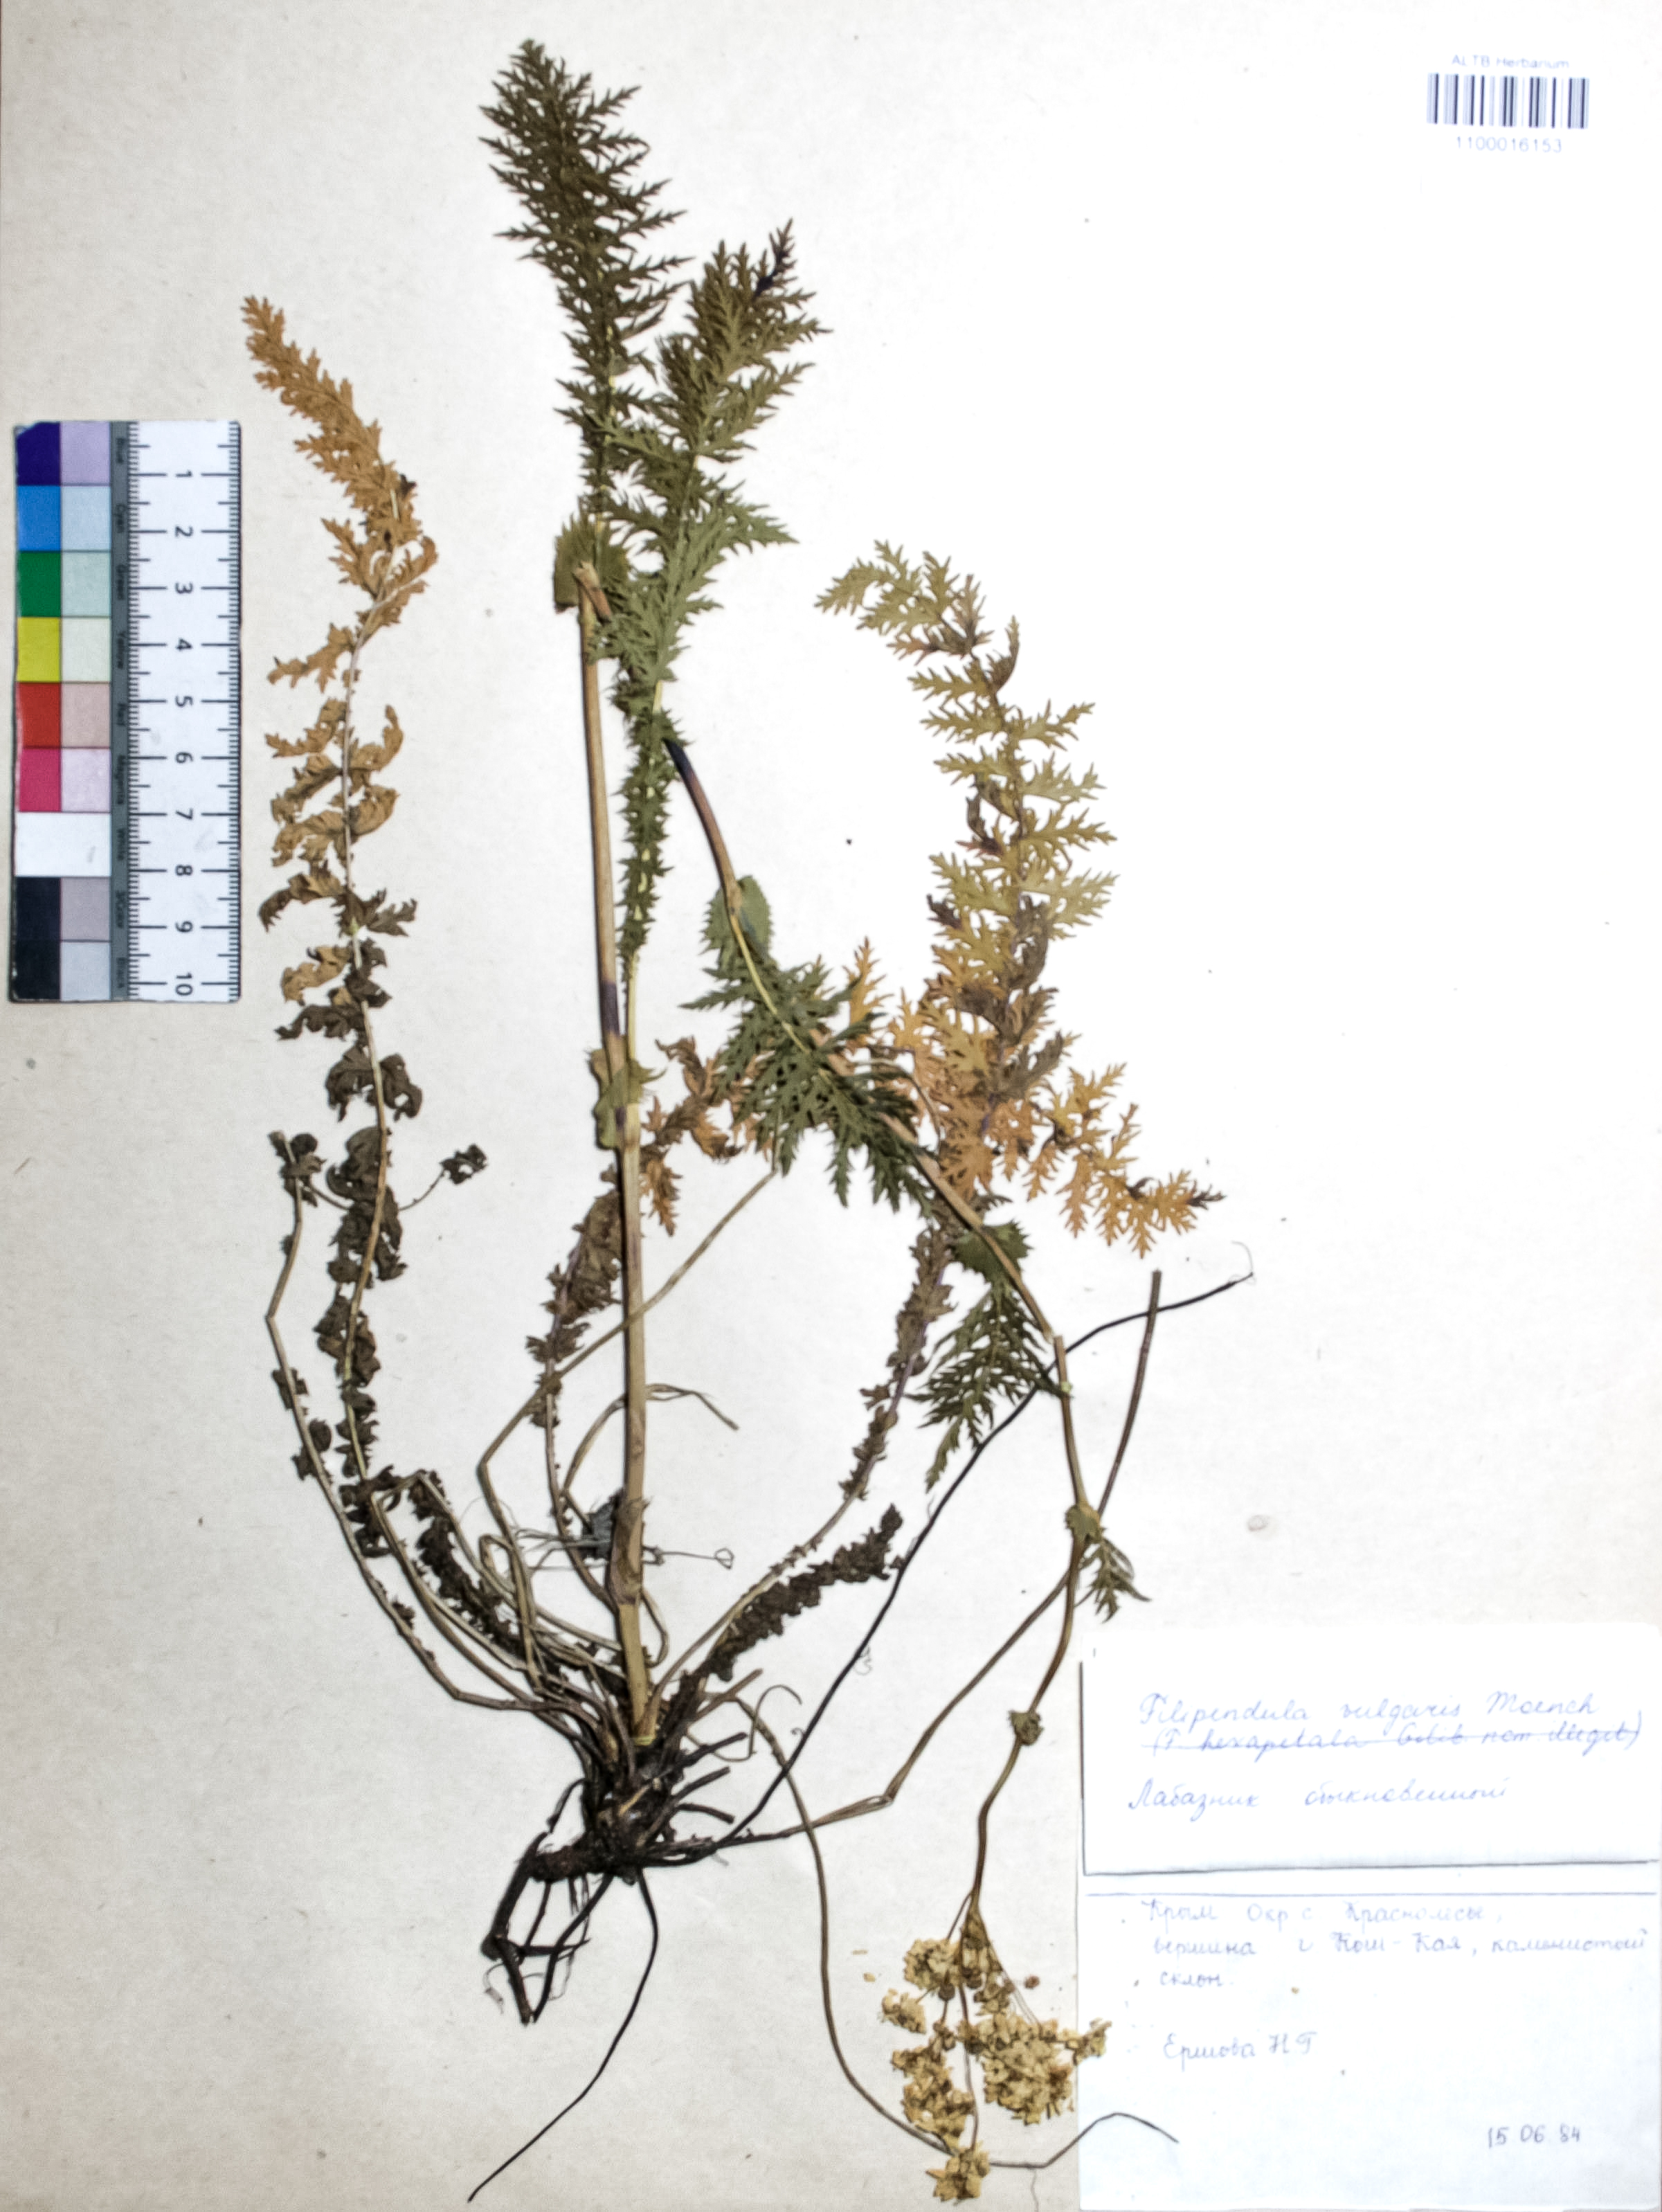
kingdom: Plantae
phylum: Tracheophyta
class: Magnoliopsida
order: Rosales
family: Rosaceae
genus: Filipendula
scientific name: Filipendula vulgaris
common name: Dropwort
